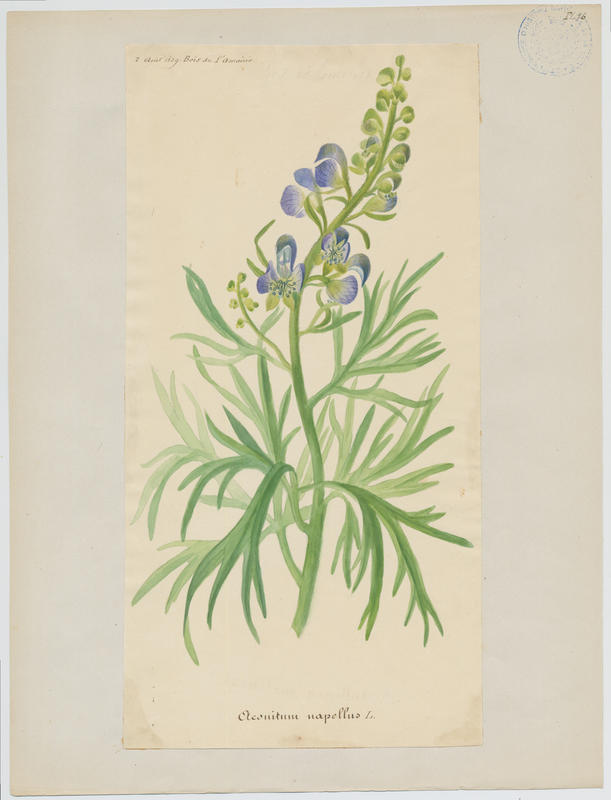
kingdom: Plantae
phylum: Tracheophyta
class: Magnoliopsida
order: Ranunculales
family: Ranunculaceae
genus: Aconitum
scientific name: Aconitum napellus
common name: Garden monkshood
